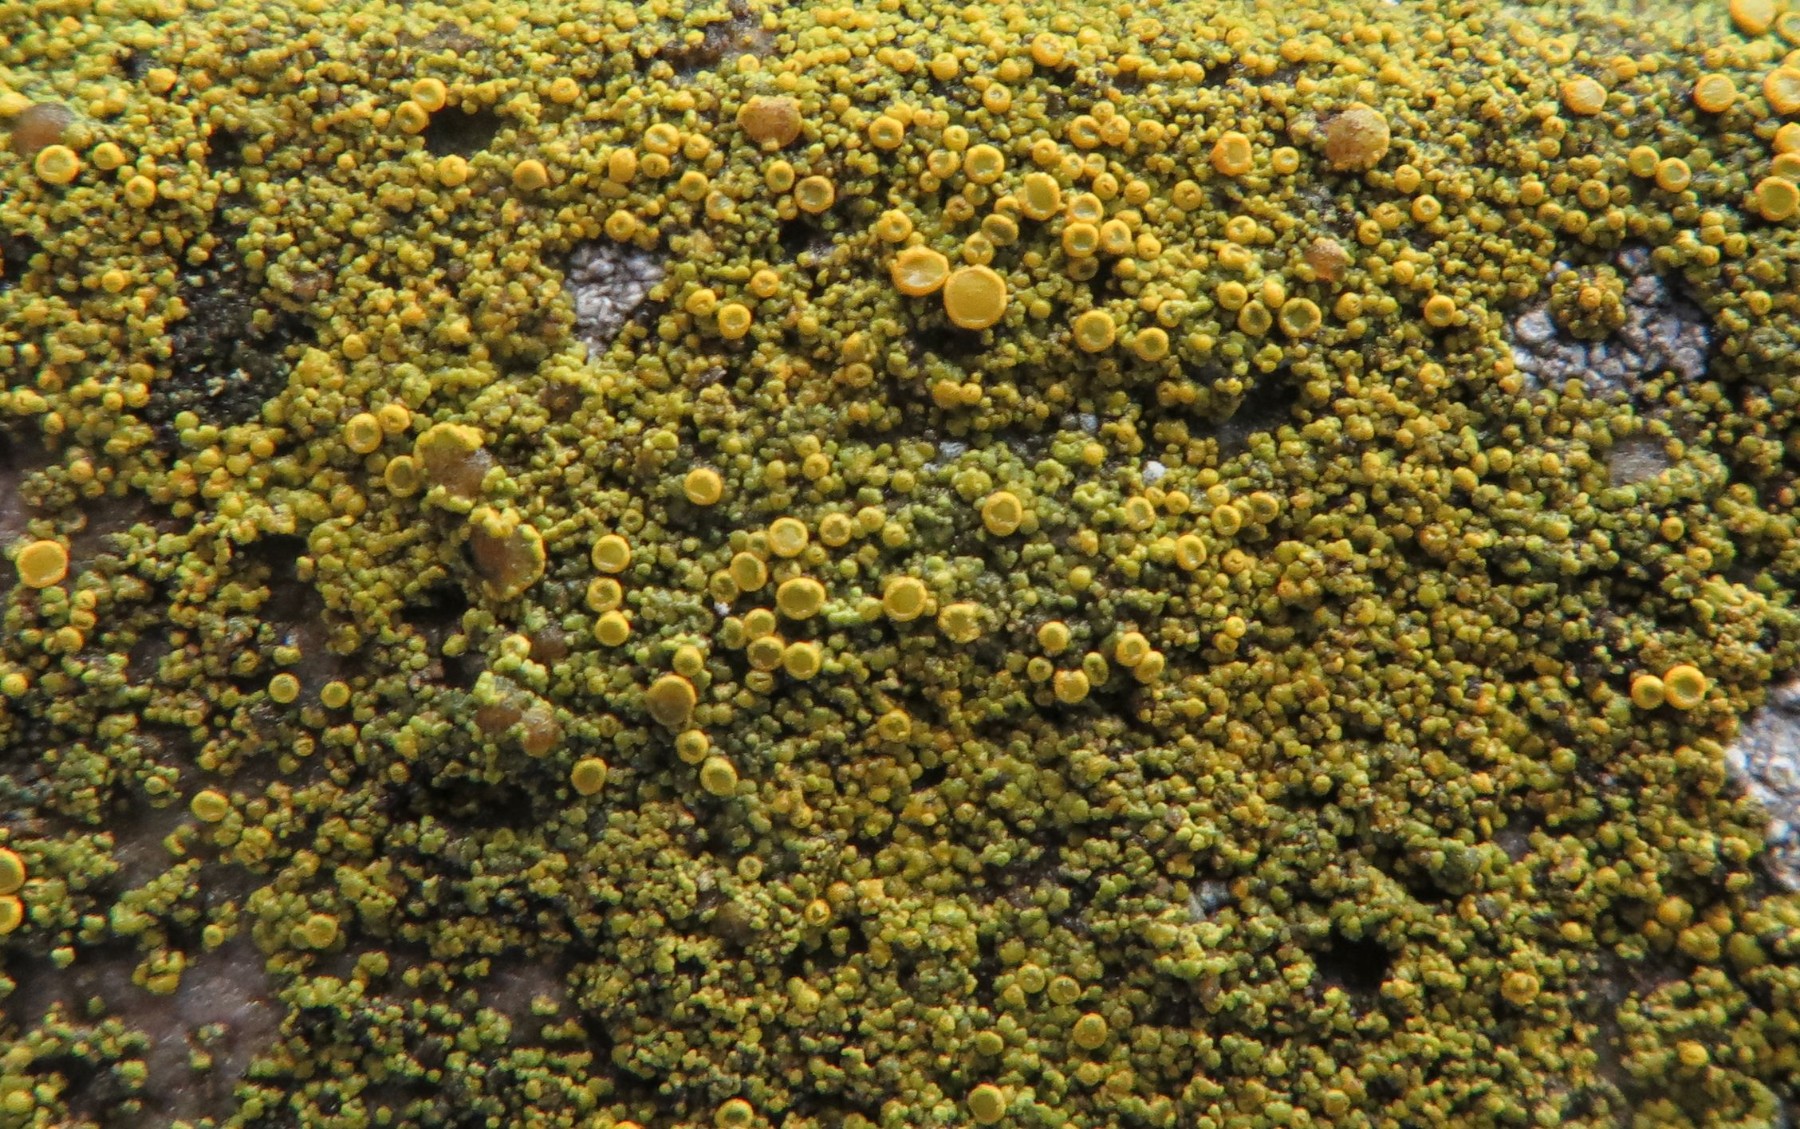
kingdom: Fungi
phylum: Ascomycota
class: Lecanoromycetes
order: Teloschistales
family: Teloschistaceae
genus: Athallia
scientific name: Athallia vitellinula
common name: æggegul orangelav
